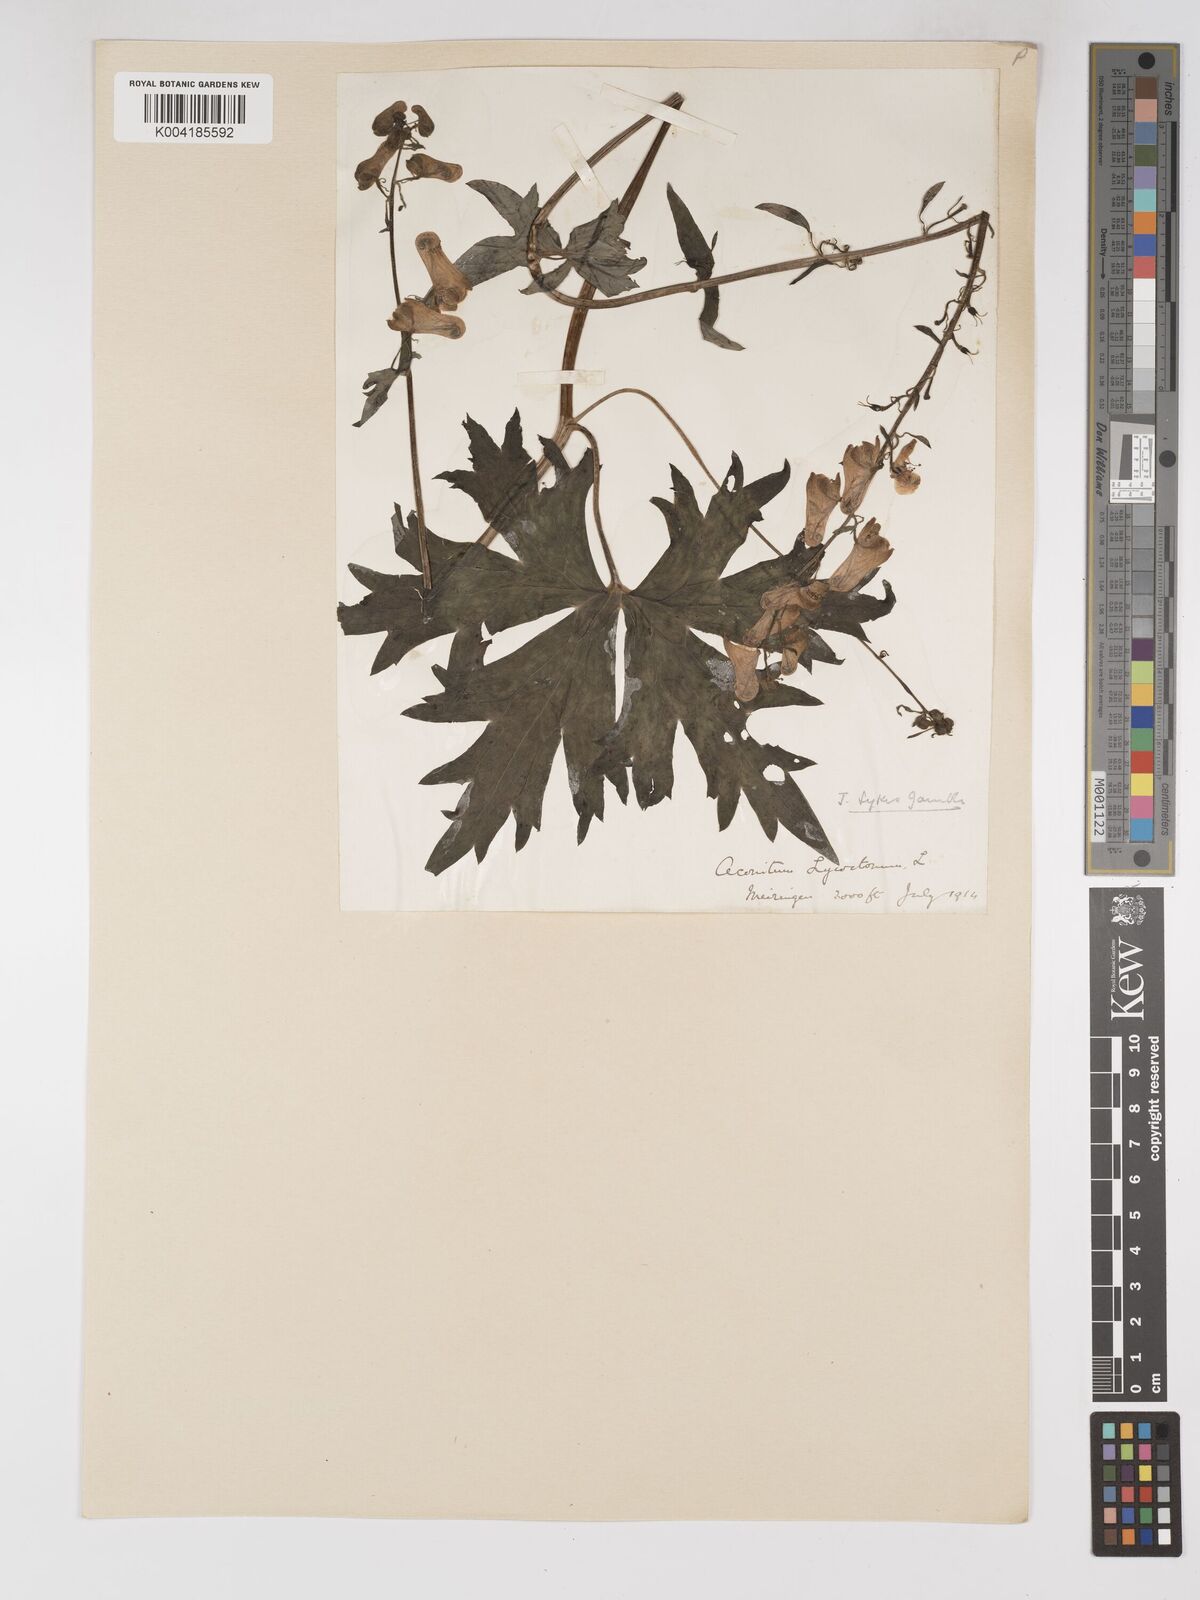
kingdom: Plantae
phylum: Tracheophyta
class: Magnoliopsida
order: Ranunculales
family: Ranunculaceae
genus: Aconitum
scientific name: Aconitum lycoctonum
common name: Wolf's-bane
